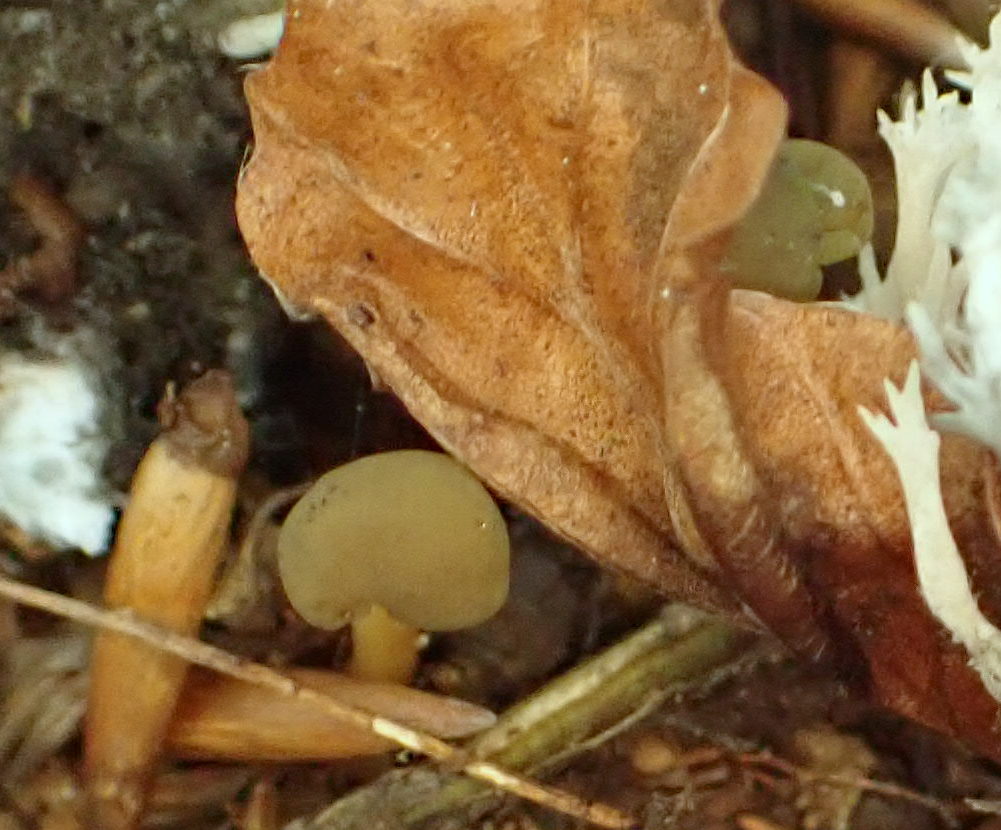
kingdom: Fungi
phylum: Ascomycota
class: Leotiomycetes
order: Leotiales
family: Leotiaceae
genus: Leotia
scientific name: Leotia lubrica
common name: ravsvamp
